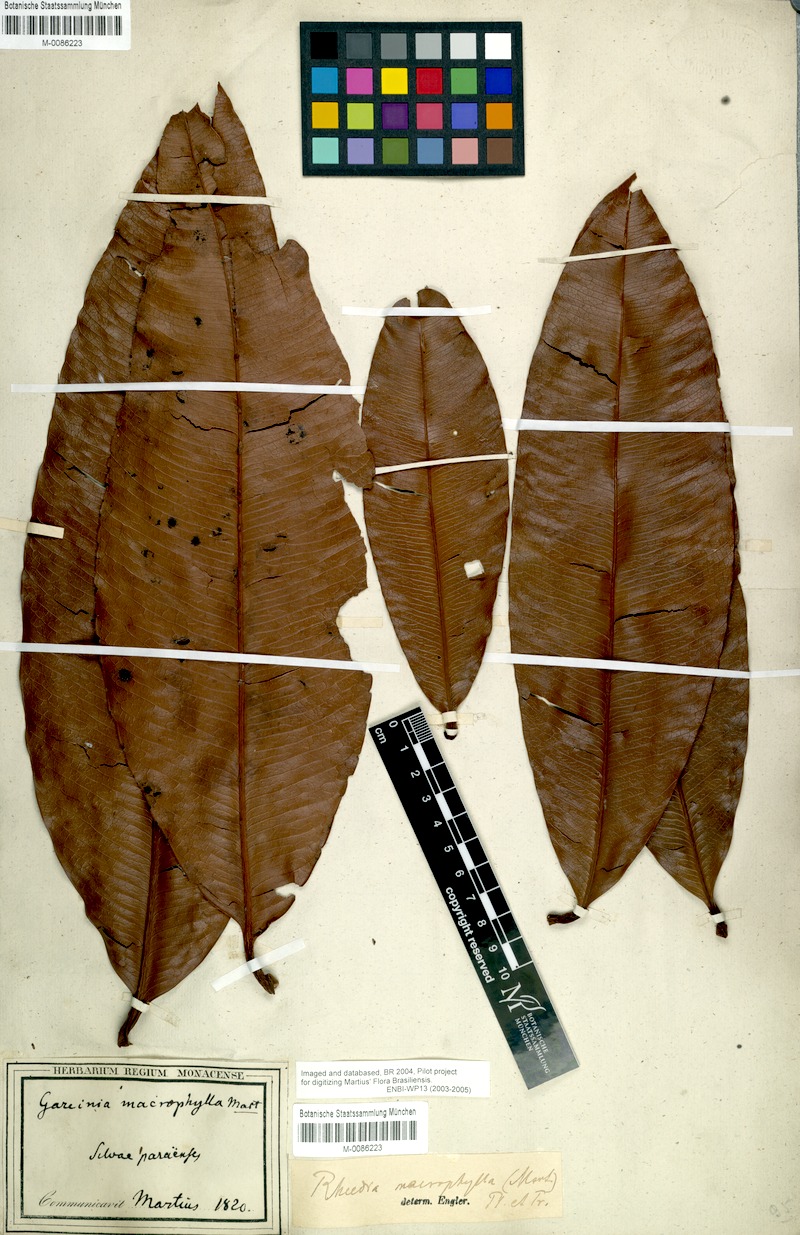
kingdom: Plantae
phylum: Tracheophyta
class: Magnoliopsida
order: Malpighiales
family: Clusiaceae
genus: Garcinia
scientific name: Garcinia macrophylla
